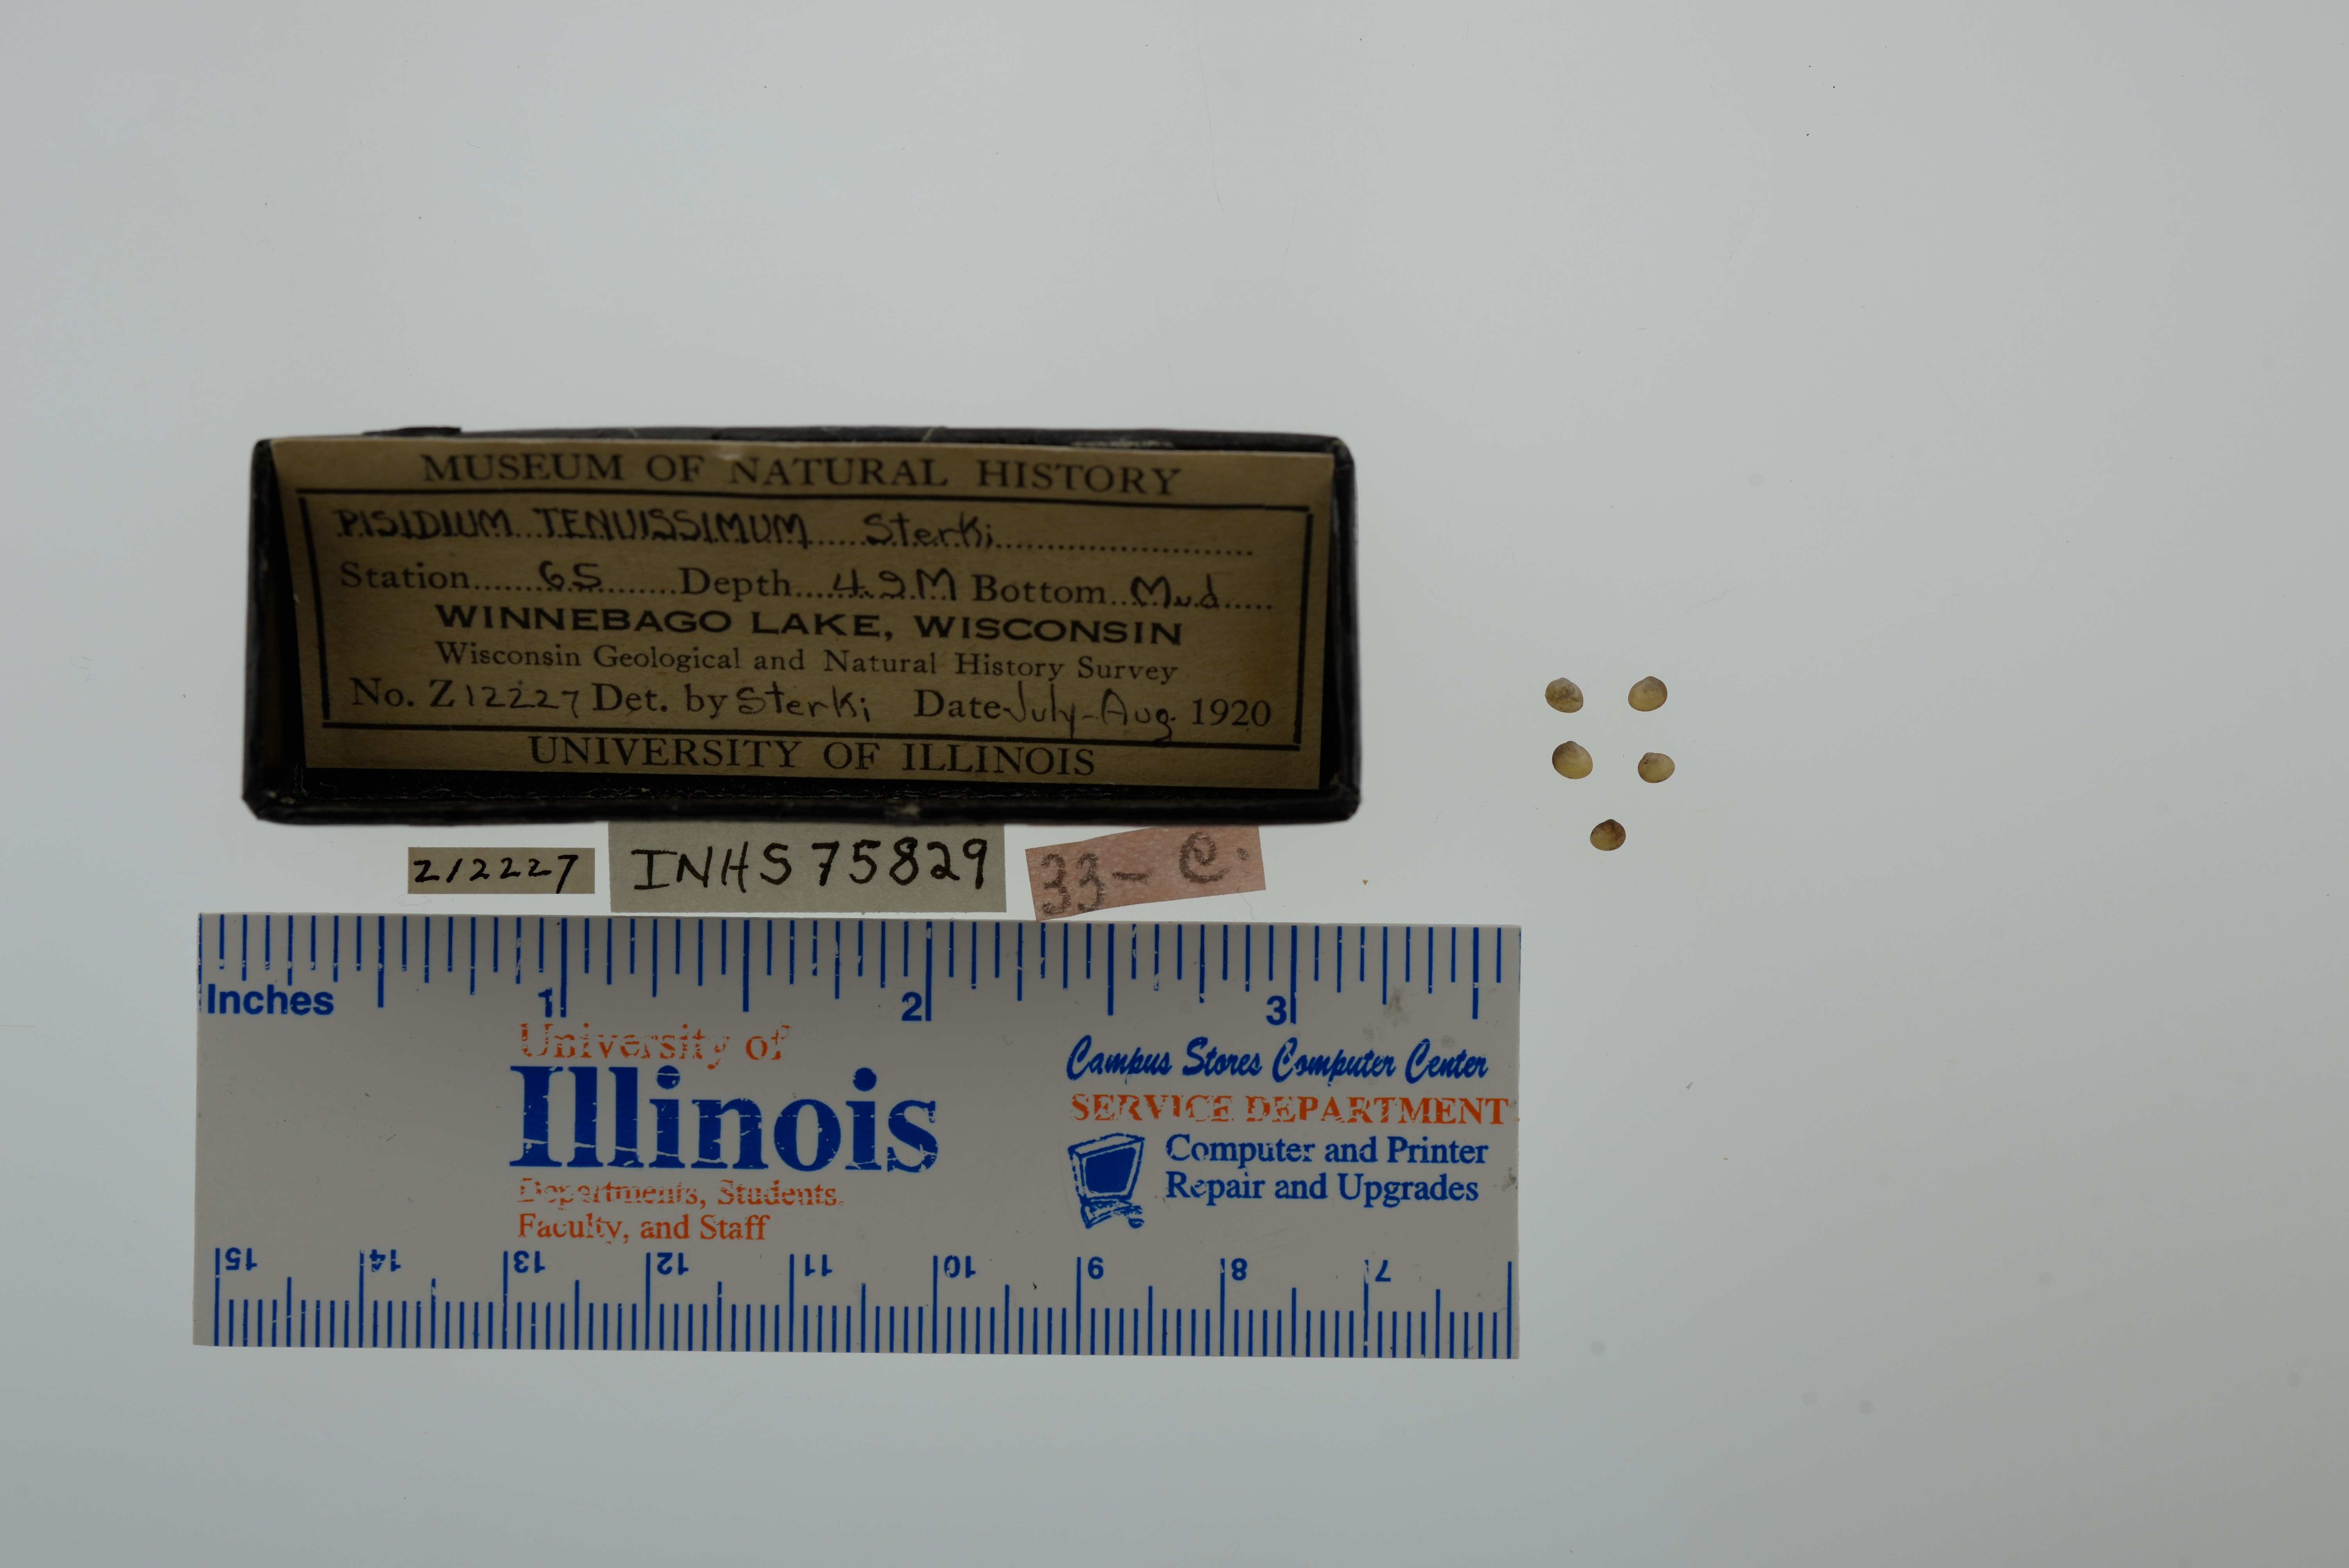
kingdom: Animalia
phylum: Mollusca
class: Bivalvia
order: Sphaeriida
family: Sphaeriidae
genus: Euglesa
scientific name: Euglesa nitida
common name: Shining peaclam
